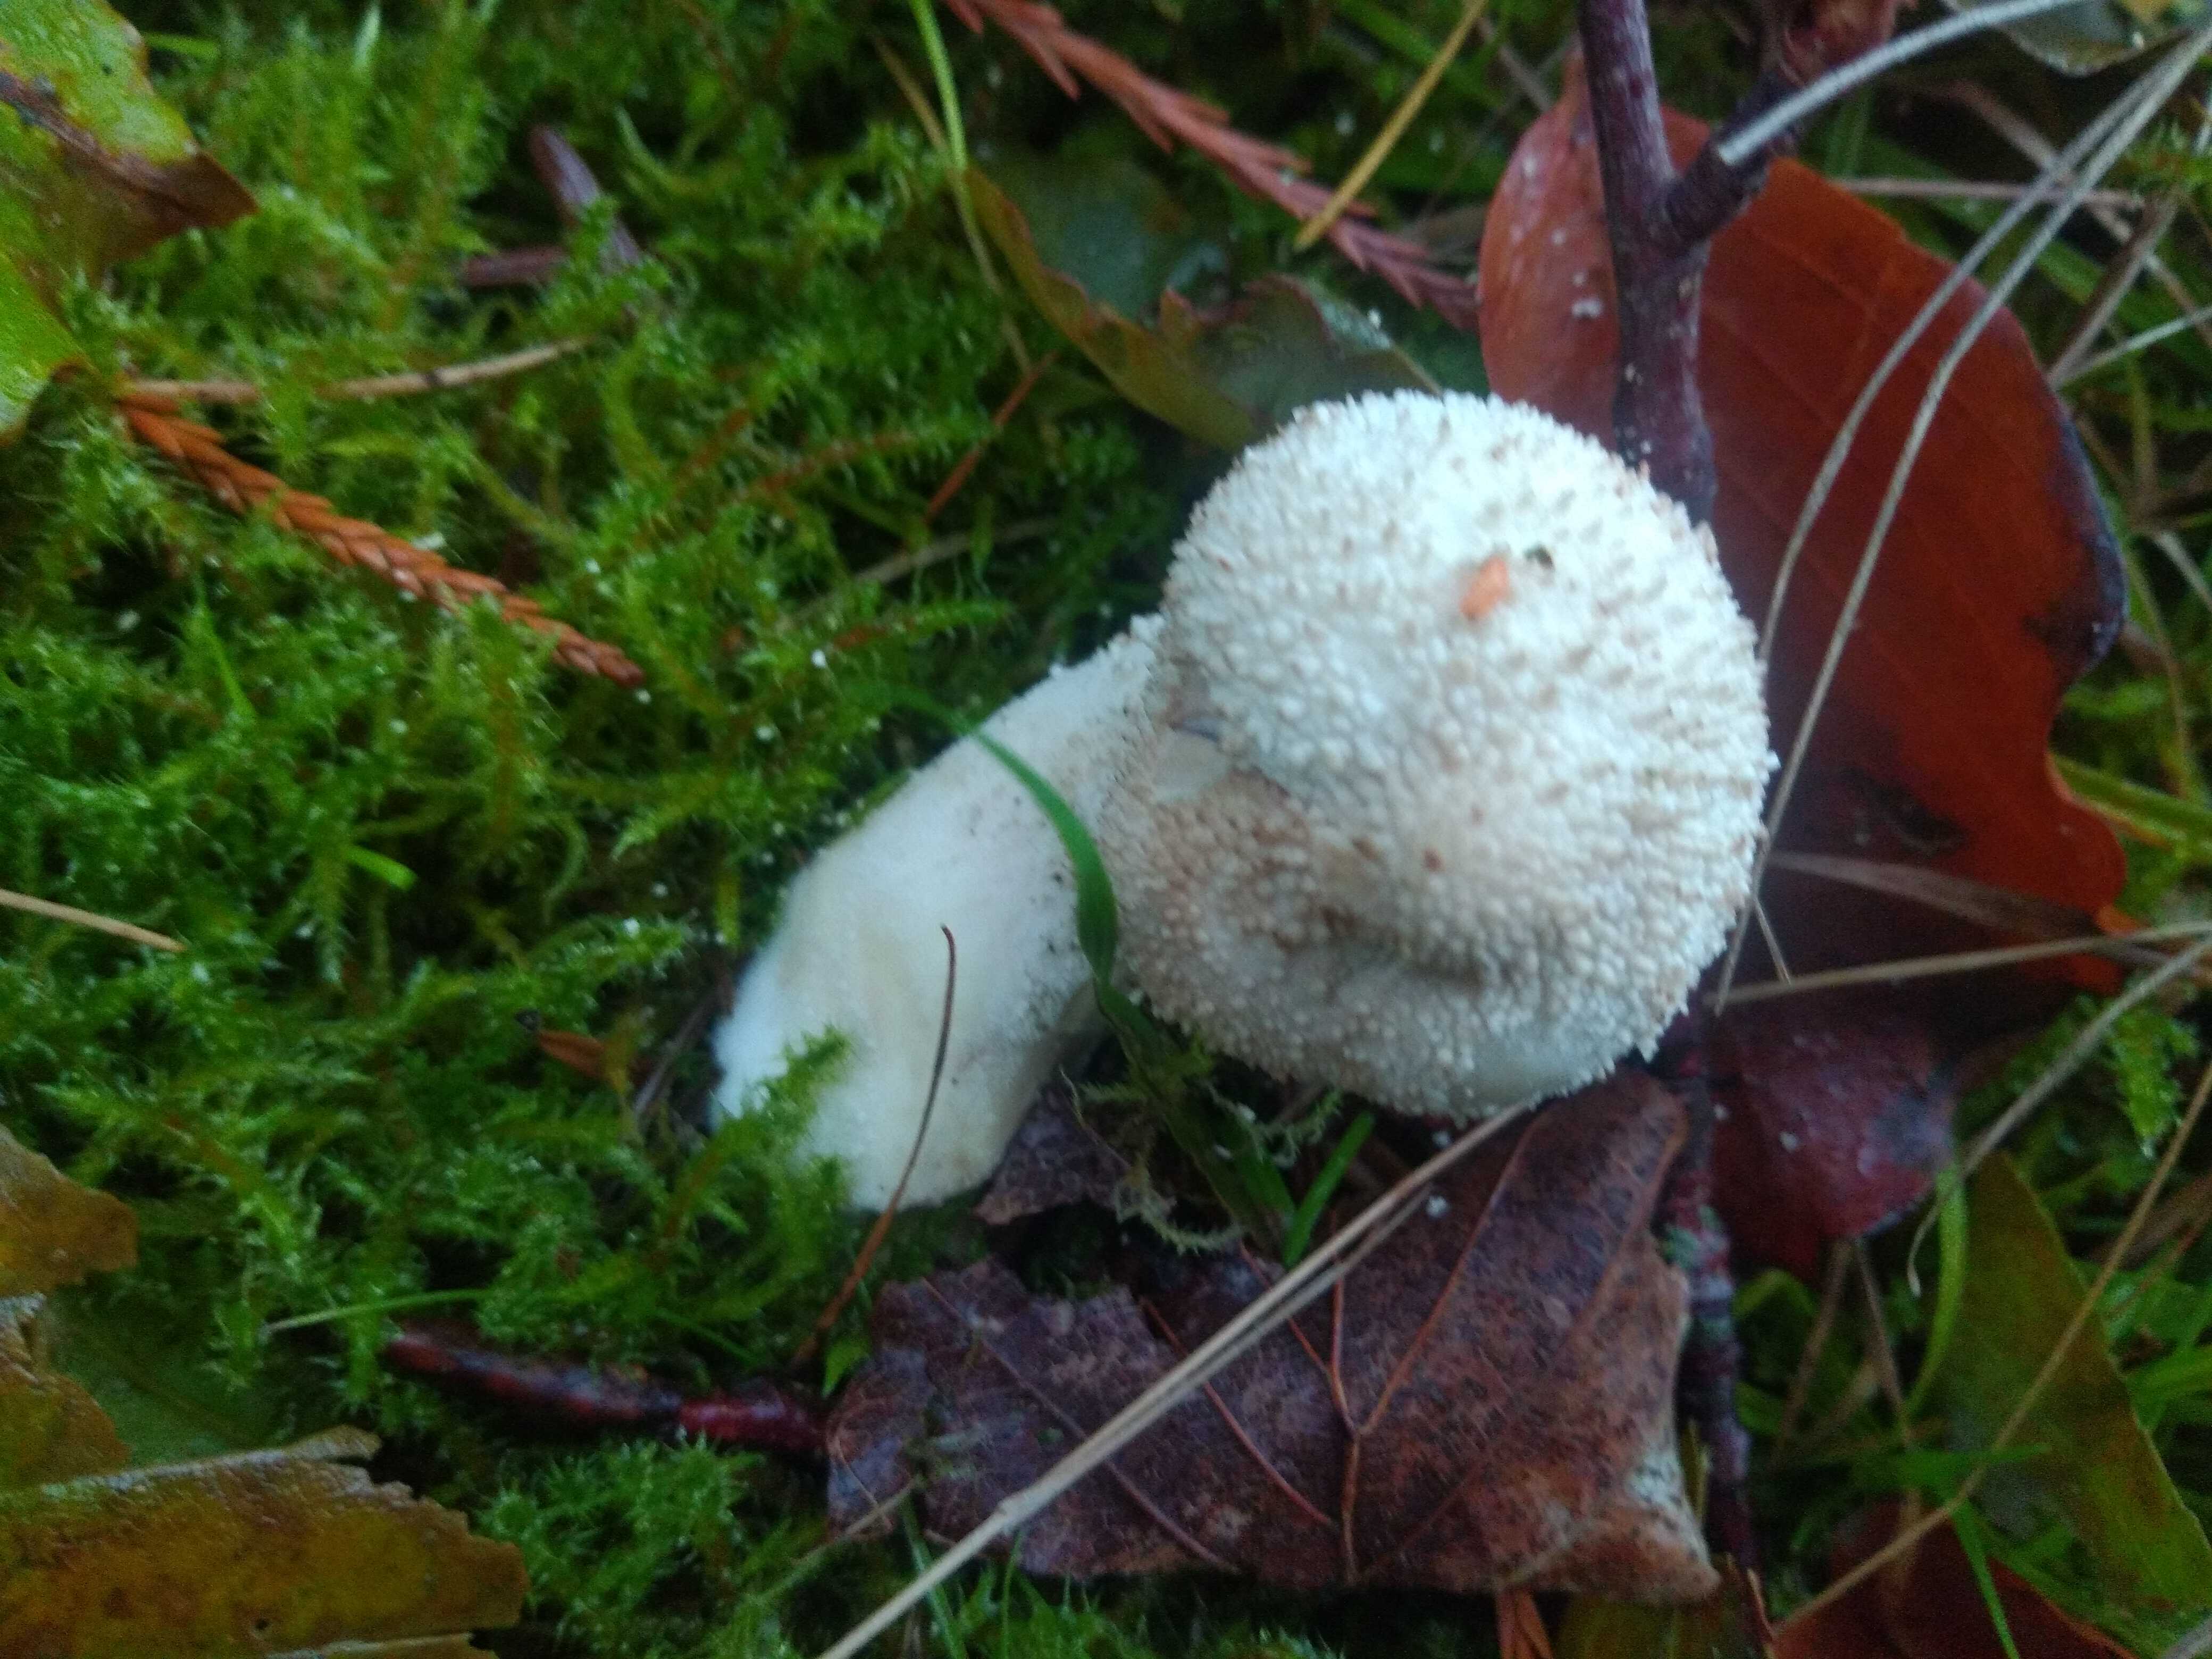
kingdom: Fungi
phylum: Basidiomycota
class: Agaricomycetes
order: Agaricales
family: Lycoperdaceae
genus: Lycoperdon
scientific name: Lycoperdon perlatum
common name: krystal-støvbold
